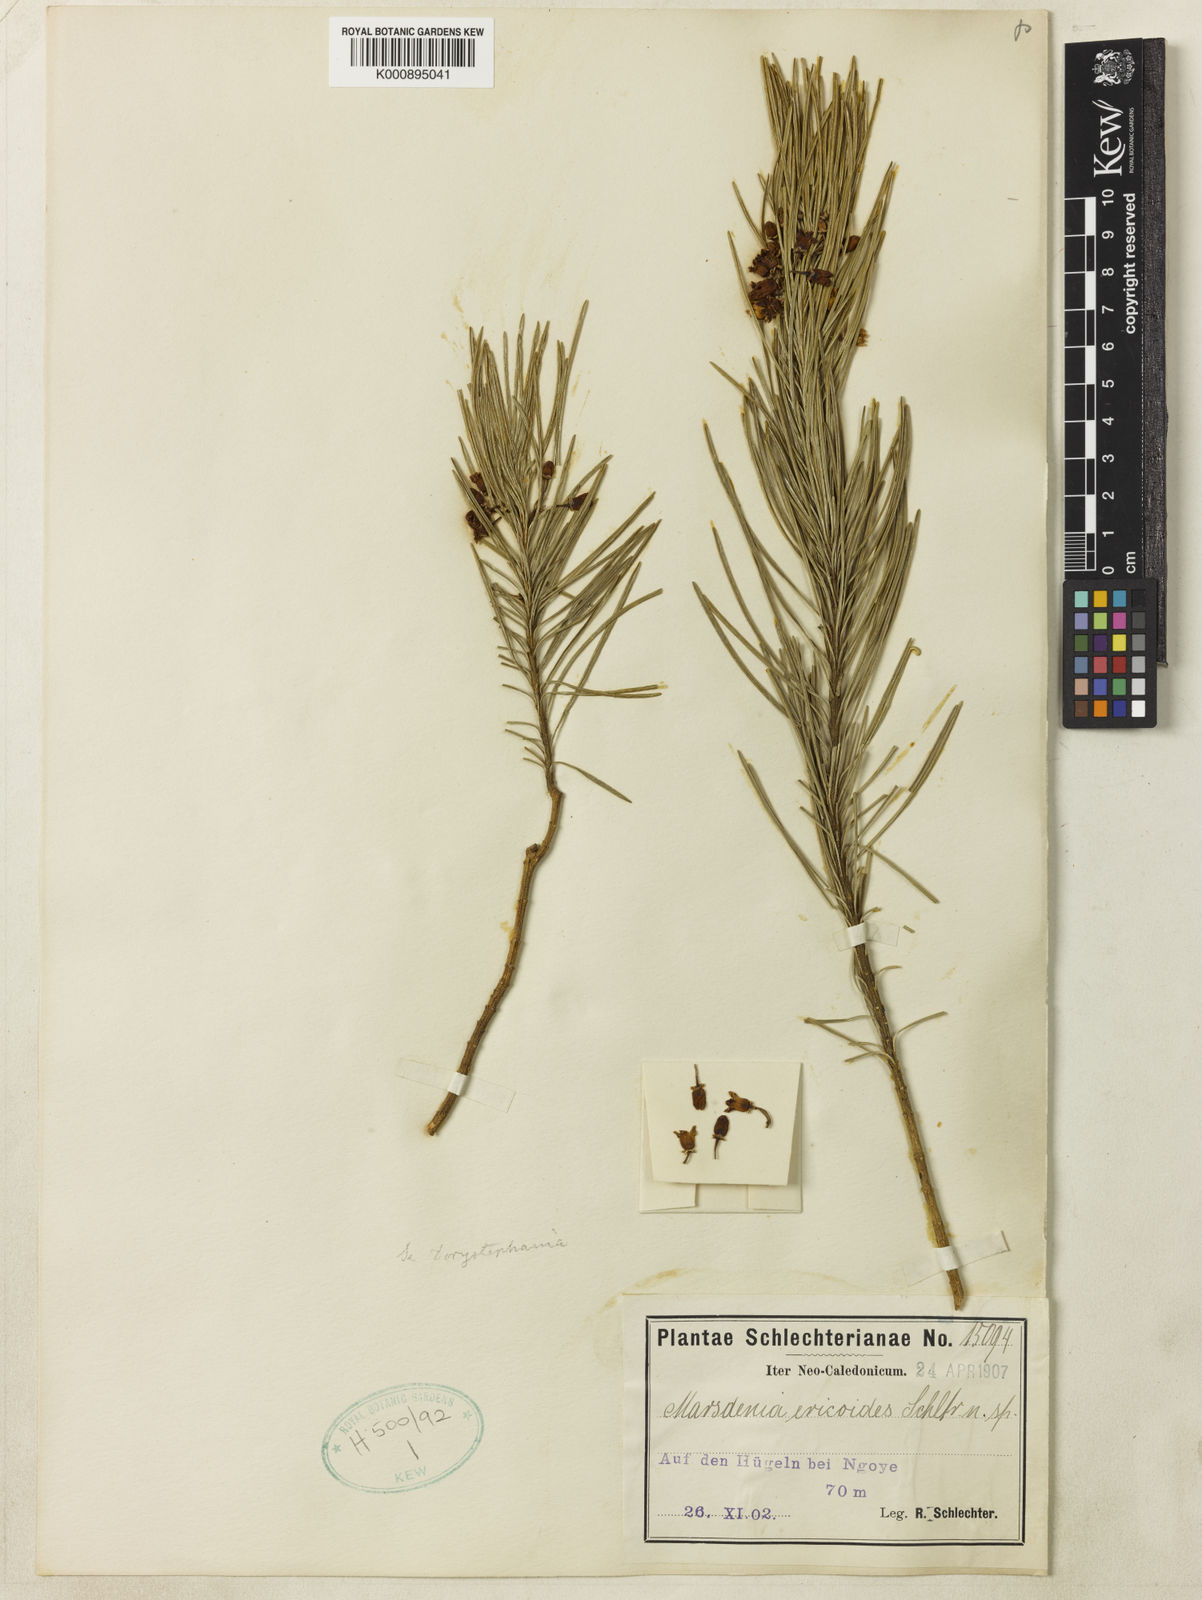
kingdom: Plantae
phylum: Tracheophyta
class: Magnoliopsida
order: Gentianales
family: Apocynaceae
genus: Leichhardtia
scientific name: Leichhardtia ericoides
